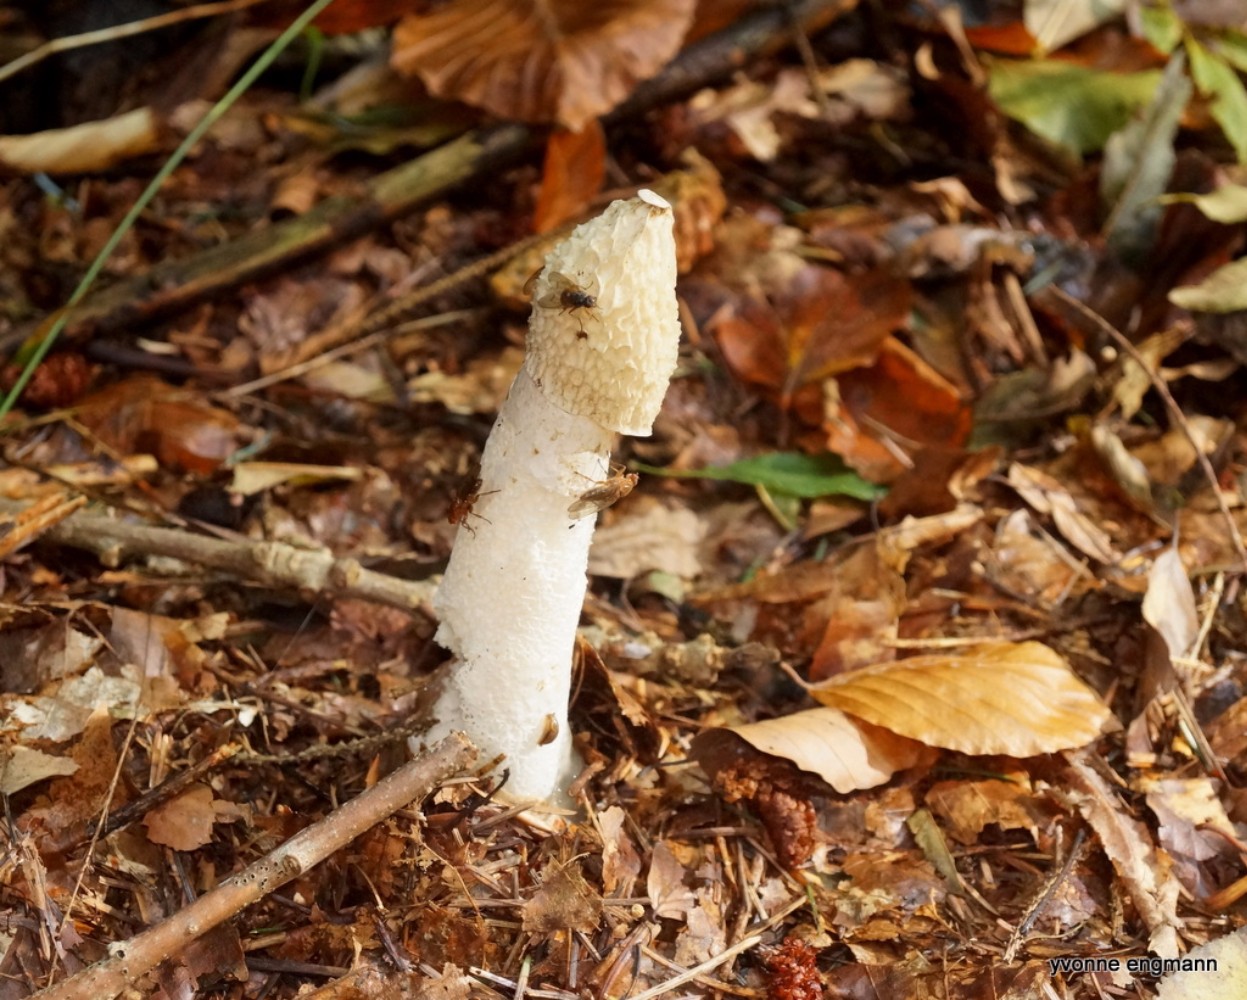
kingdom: Fungi
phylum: Basidiomycota
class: Agaricomycetes
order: Phallales
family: Phallaceae
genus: Phallus
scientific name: Phallus impudicus
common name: almindelig stinksvamp
